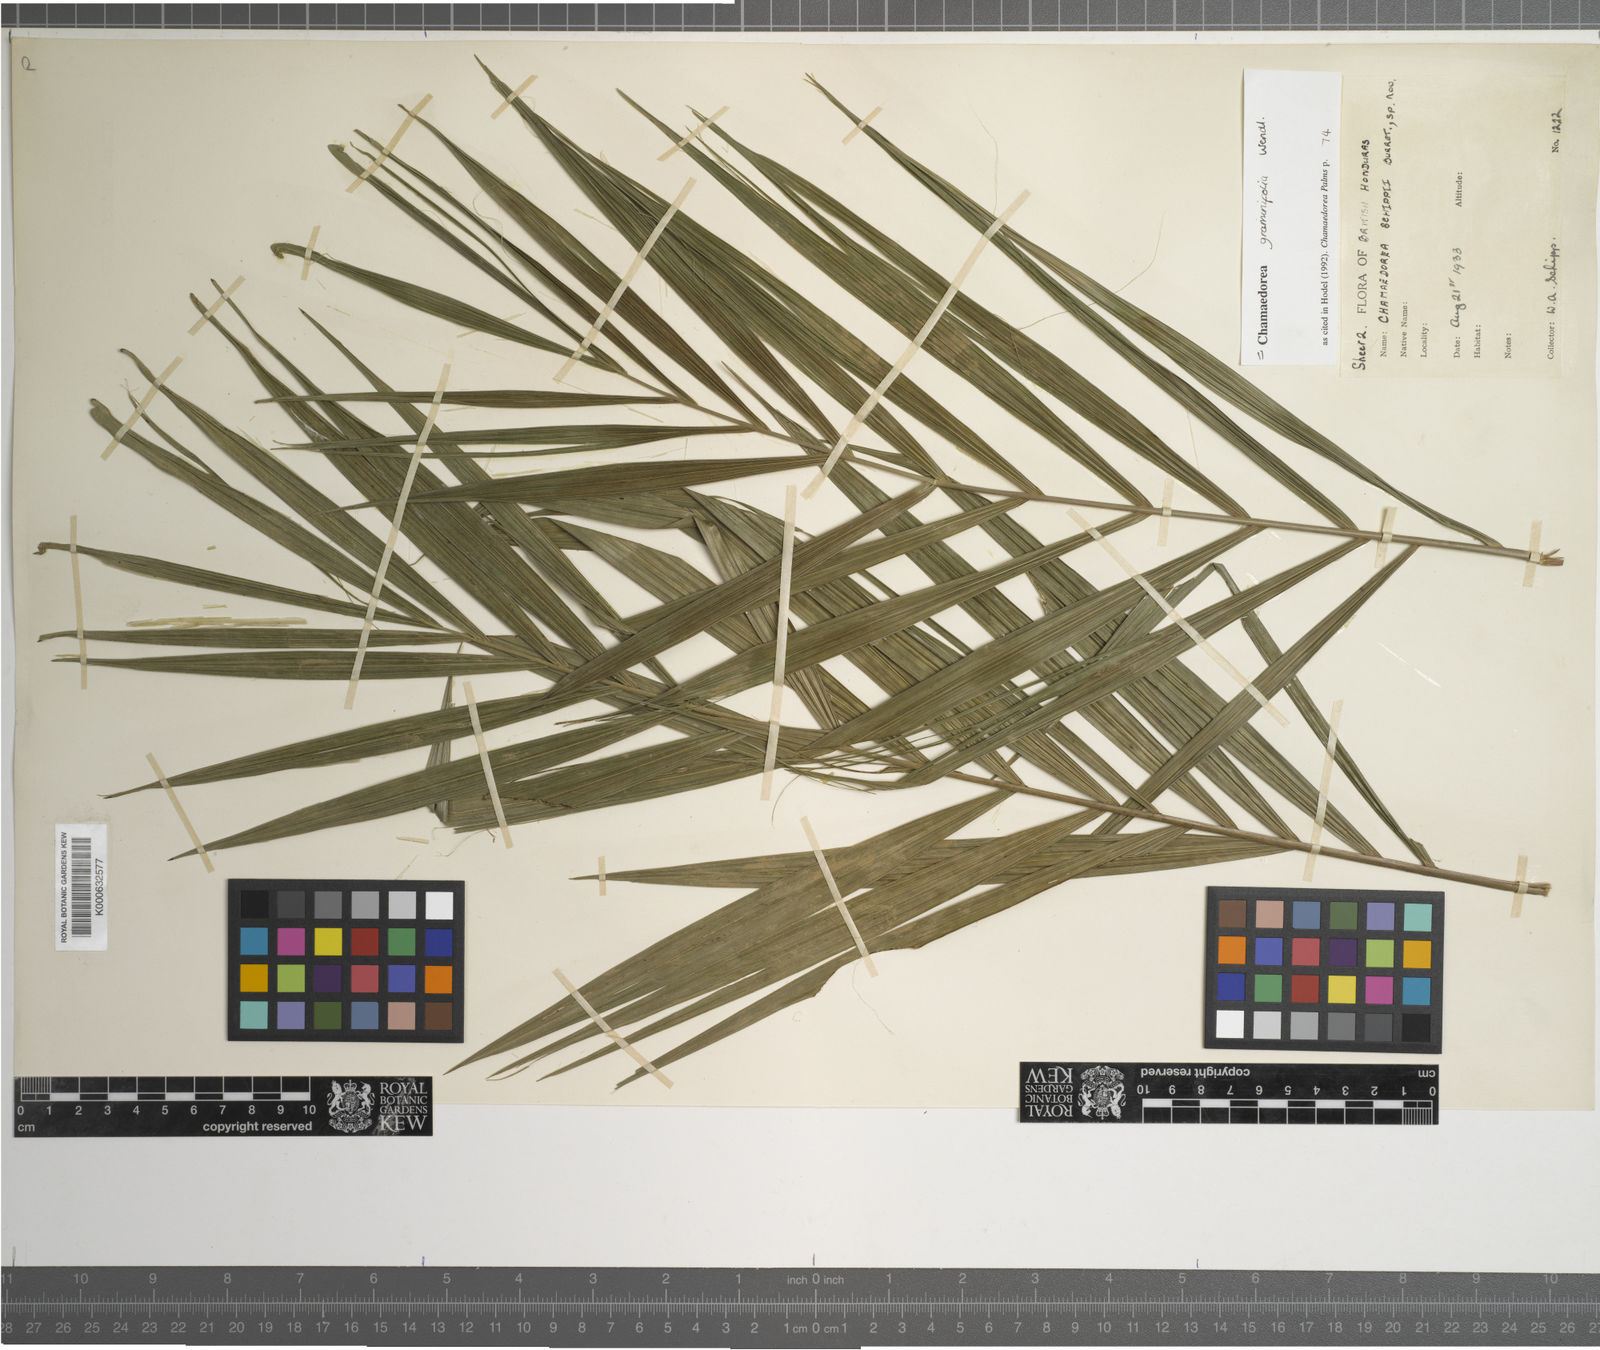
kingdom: Plantae
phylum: Tracheophyta
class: Liliopsida
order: Arecales
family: Arecaceae
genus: Chamaedorea
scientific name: Chamaedorea graminifolia
